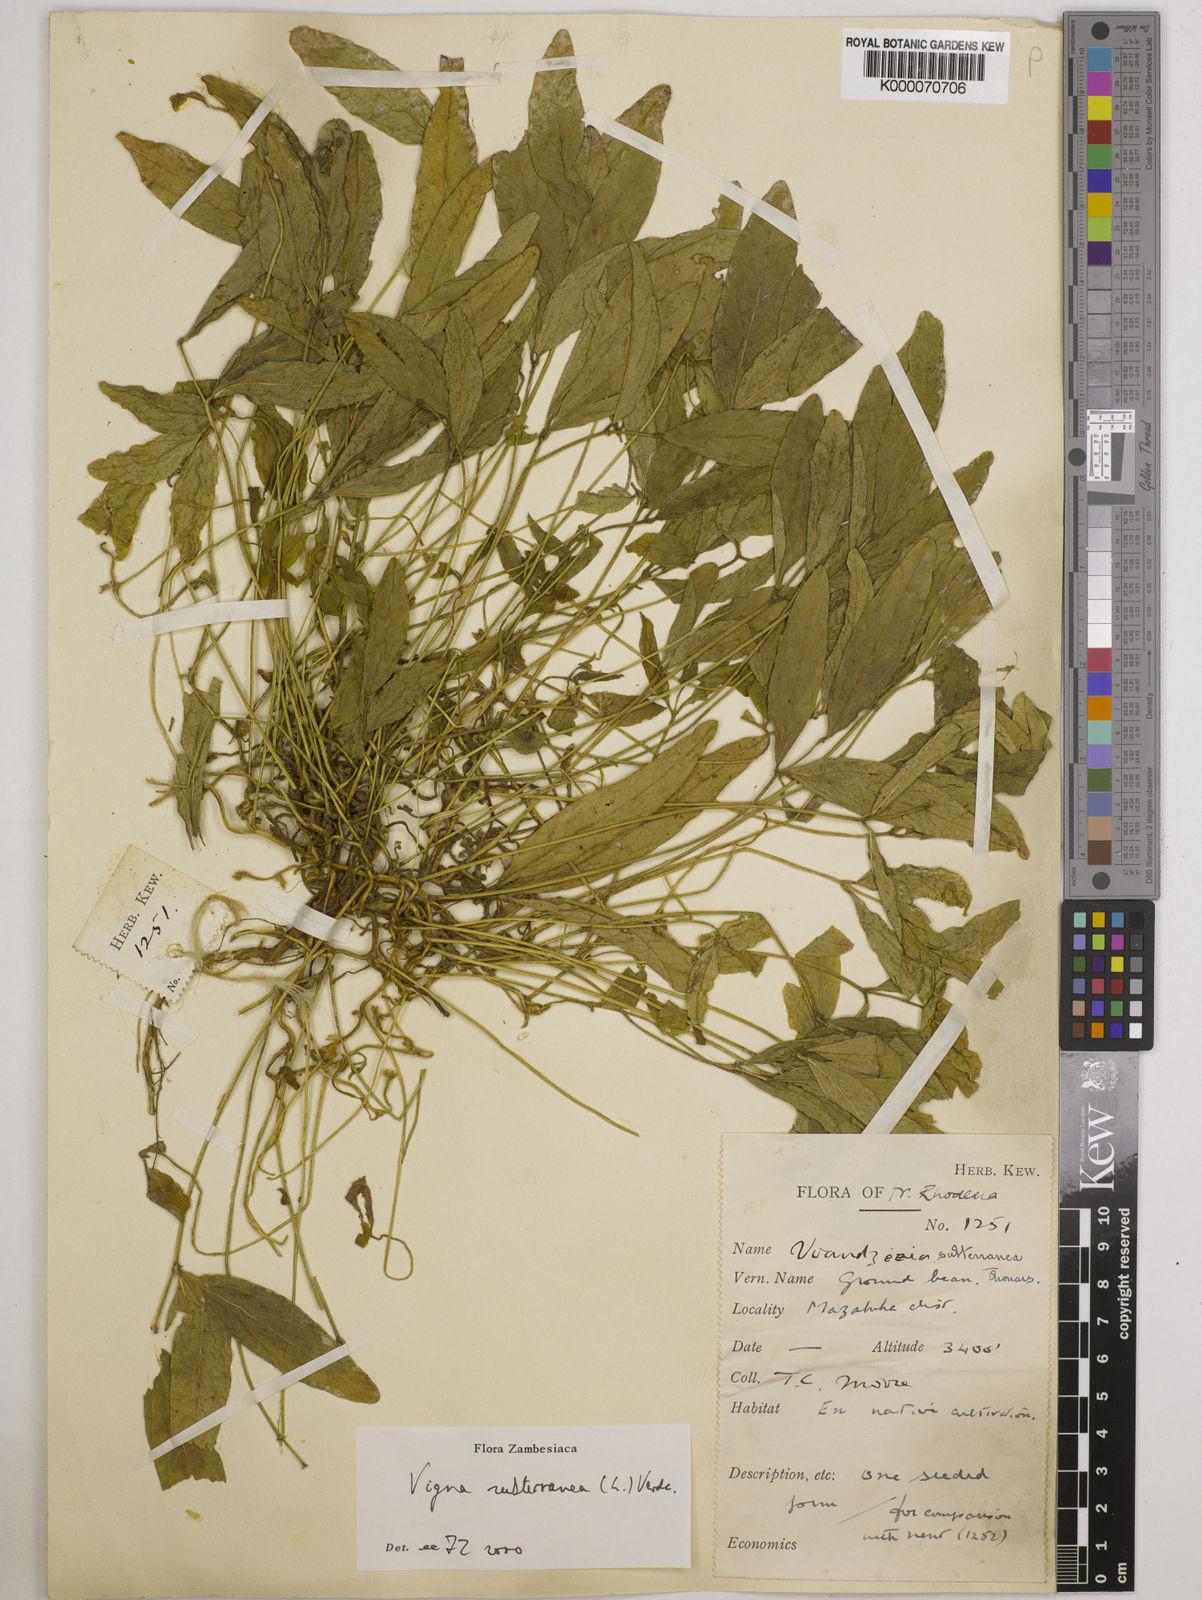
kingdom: Plantae
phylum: Tracheophyta
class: Magnoliopsida
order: Fabales
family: Fabaceae
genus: Vigna
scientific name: Vigna subterranea
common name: Bambara groundnut
